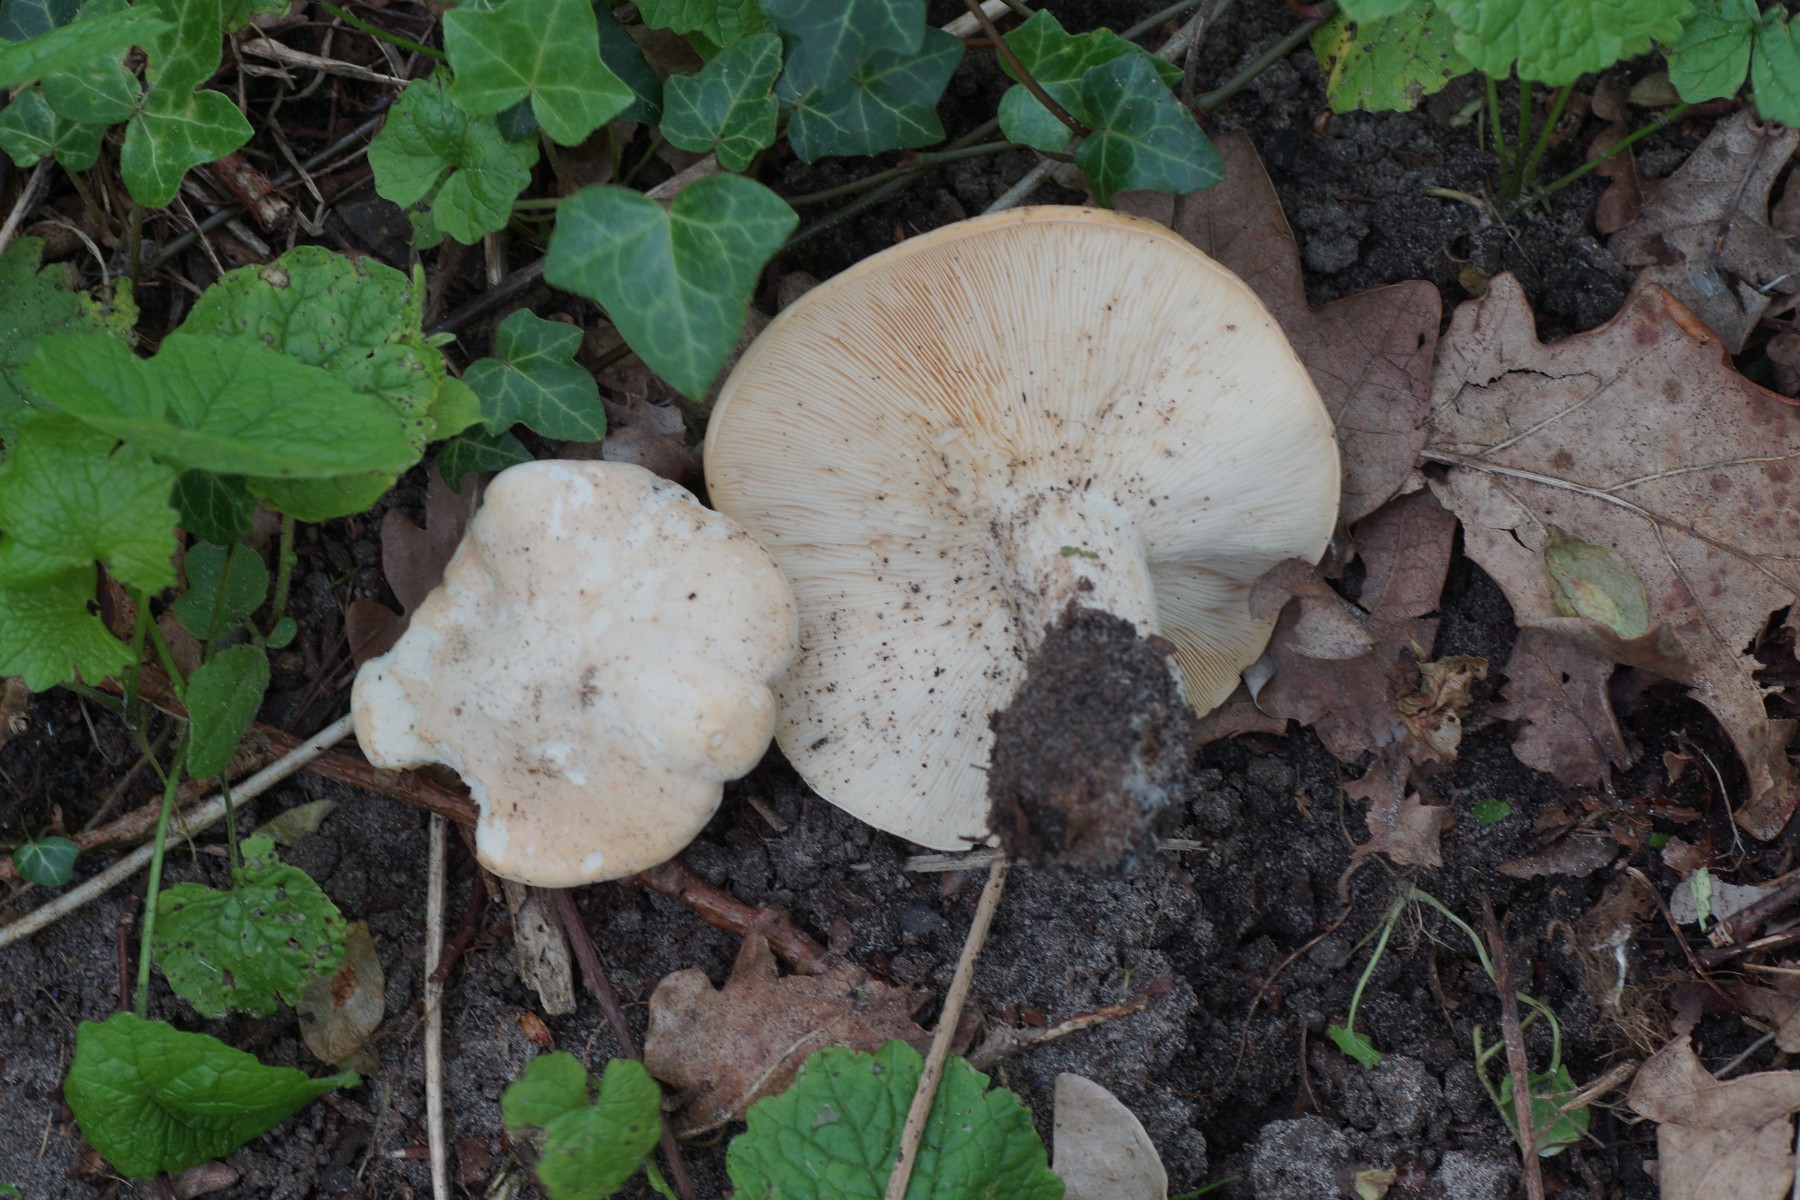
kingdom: Fungi
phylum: Basidiomycota
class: Agaricomycetes
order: Agaricales
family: Lyophyllaceae
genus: Calocybe
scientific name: Calocybe gambosa
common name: vårmusseron
